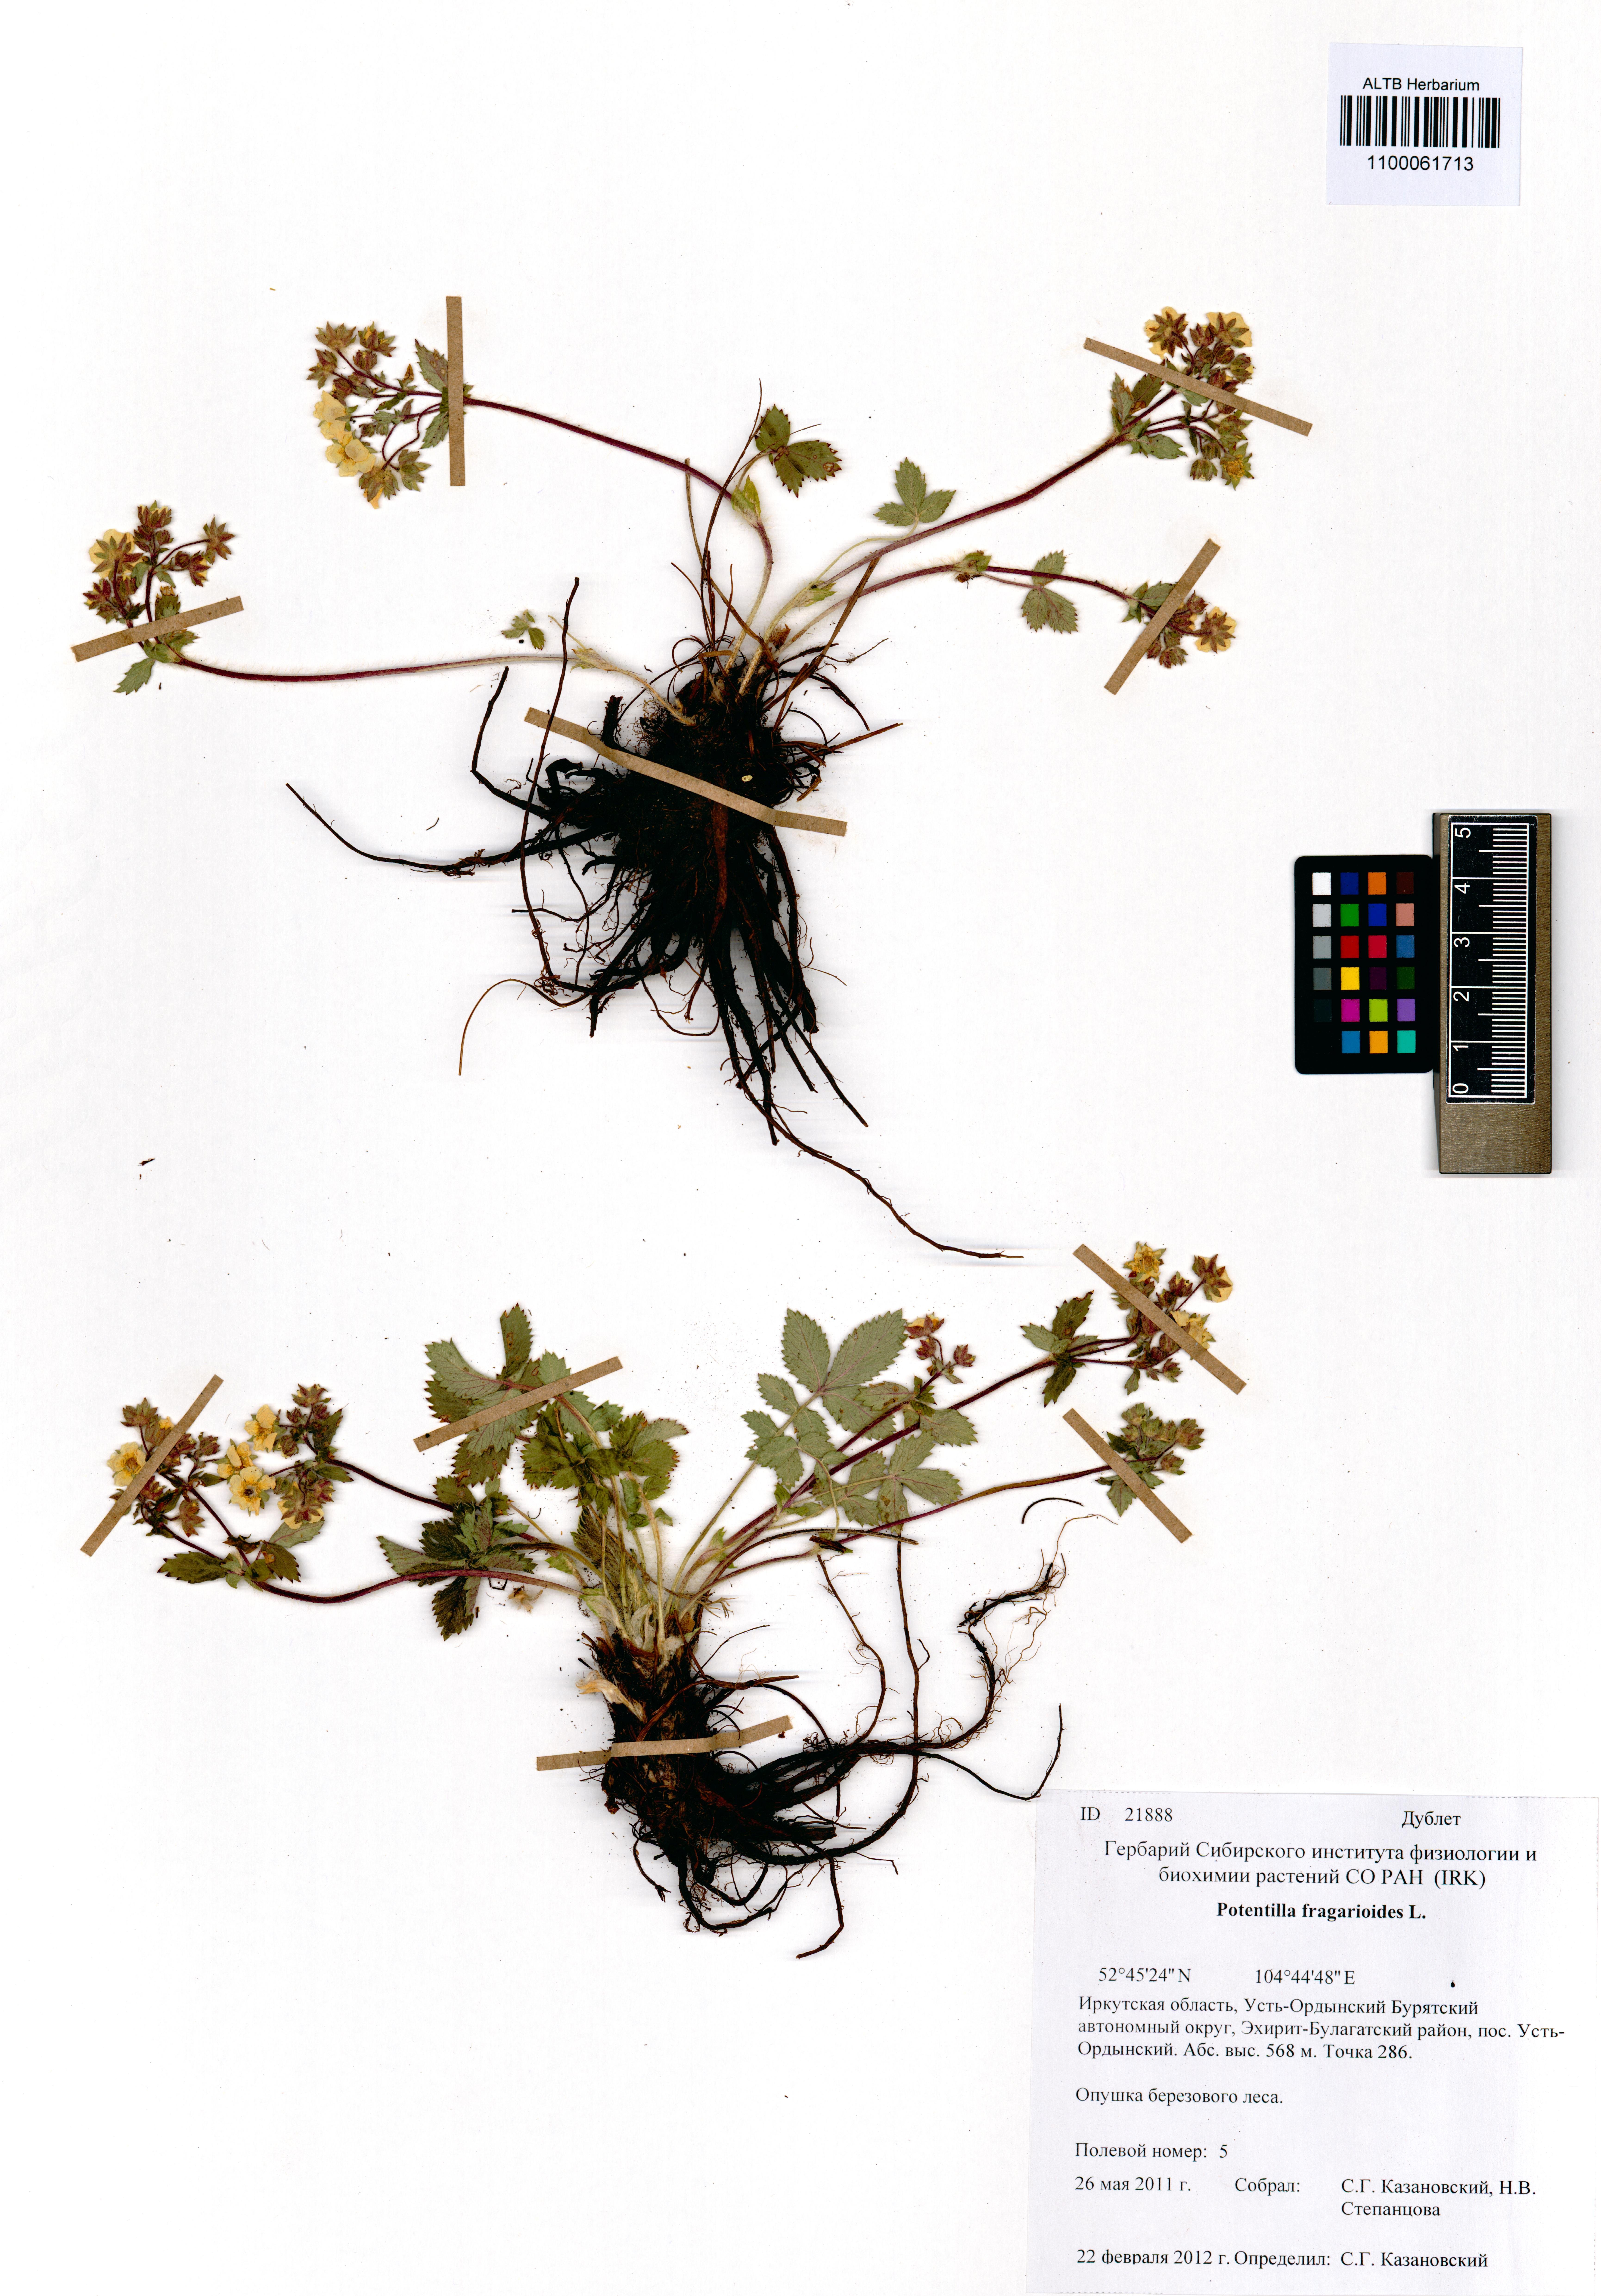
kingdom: Plantae
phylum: Tracheophyta
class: Magnoliopsida
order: Rosales
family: Rosaceae
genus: Potentilla
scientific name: Potentilla fragarioides
